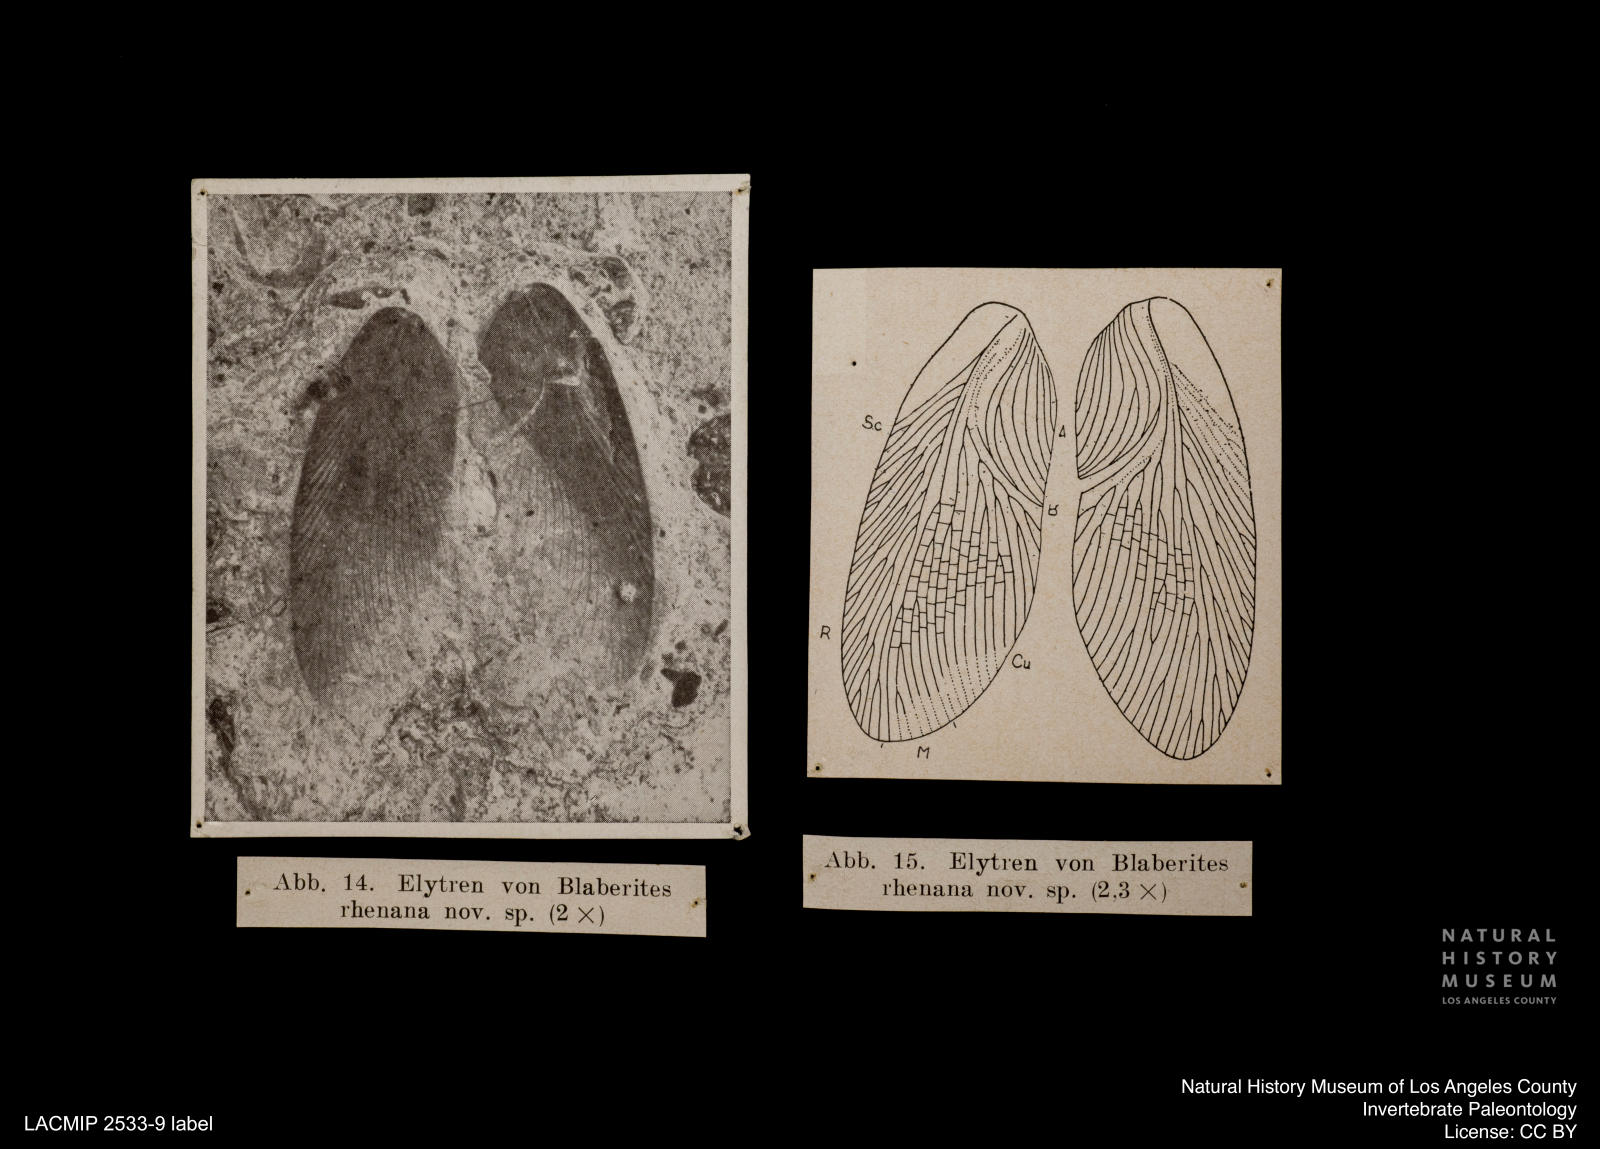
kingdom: Animalia
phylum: Arthropoda
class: Insecta
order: Orthoptera
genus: Blaberites
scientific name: Blaberites rhenana
